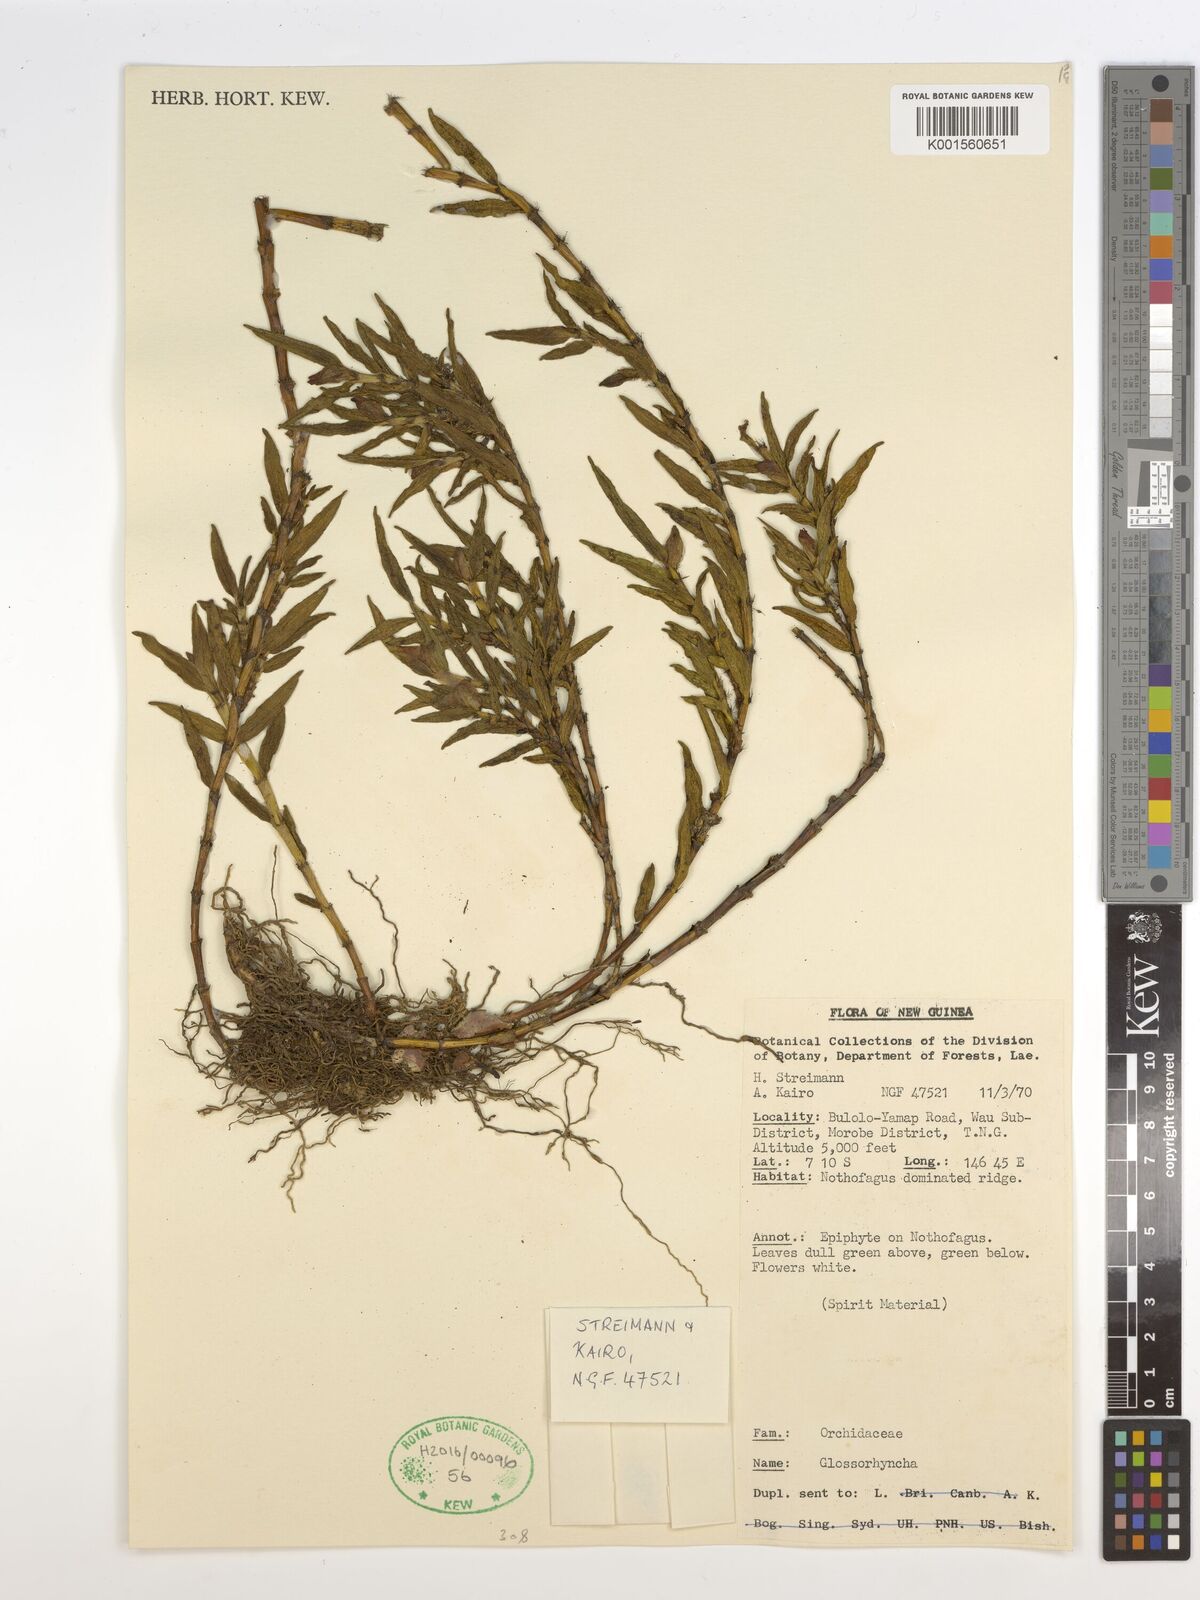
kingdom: Plantae
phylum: Tracheophyta
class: Liliopsida
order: Asparagales
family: Orchidaceae
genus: Glomera
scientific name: Glomera
